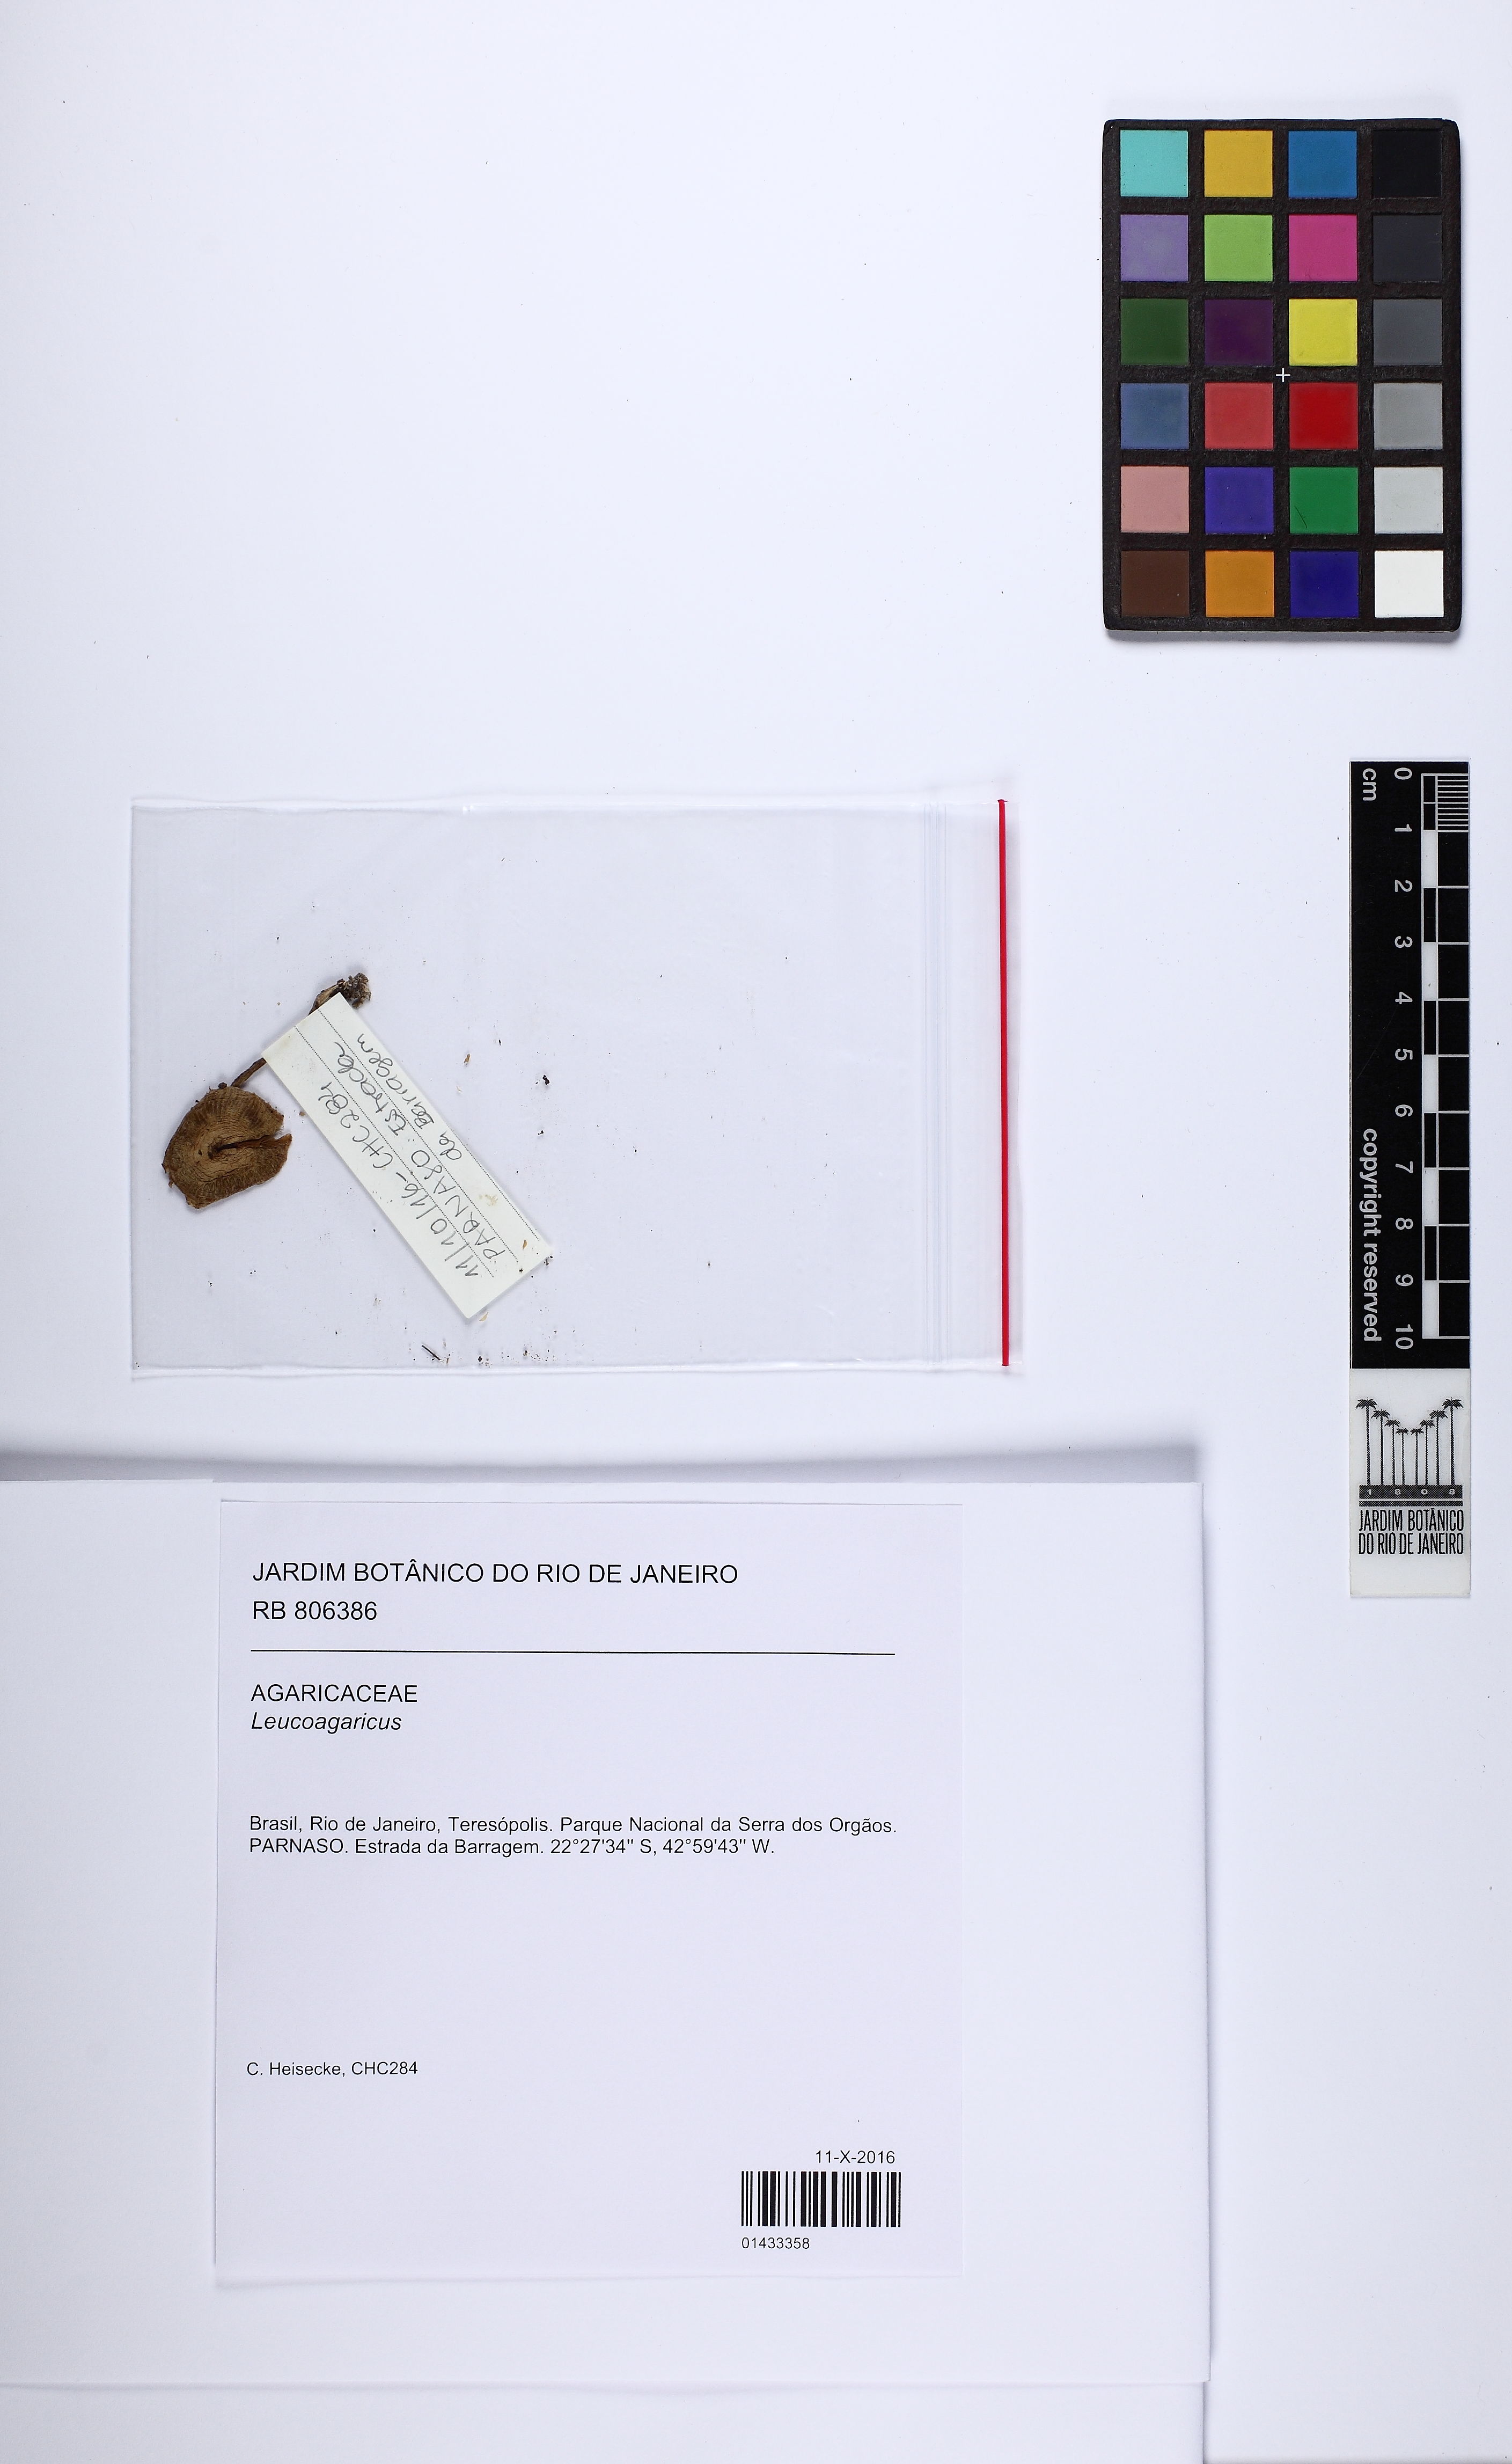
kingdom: Fungi
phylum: Basidiomycota
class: Agaricomycetes
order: Agaricales
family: Agaricaceae
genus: Leucoagaricus
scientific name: Leucoagaricus
